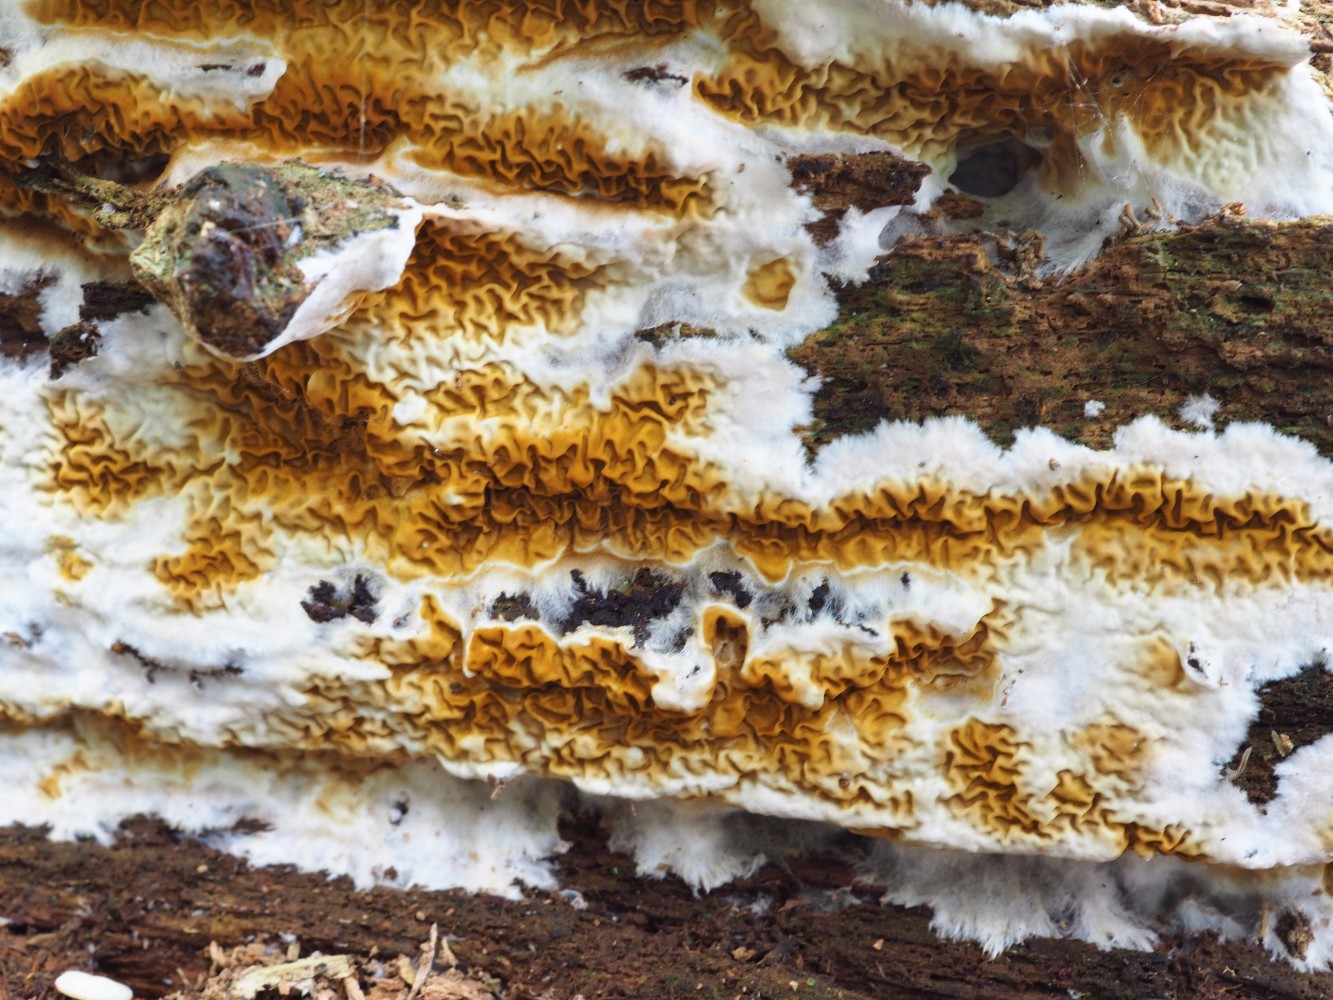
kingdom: Fungi
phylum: Basidiomycota
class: Agaricomycetes
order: Boletales
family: Serpulaceae
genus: Serpula
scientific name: Serpula himantioides
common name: tyndkødet hussvamp
